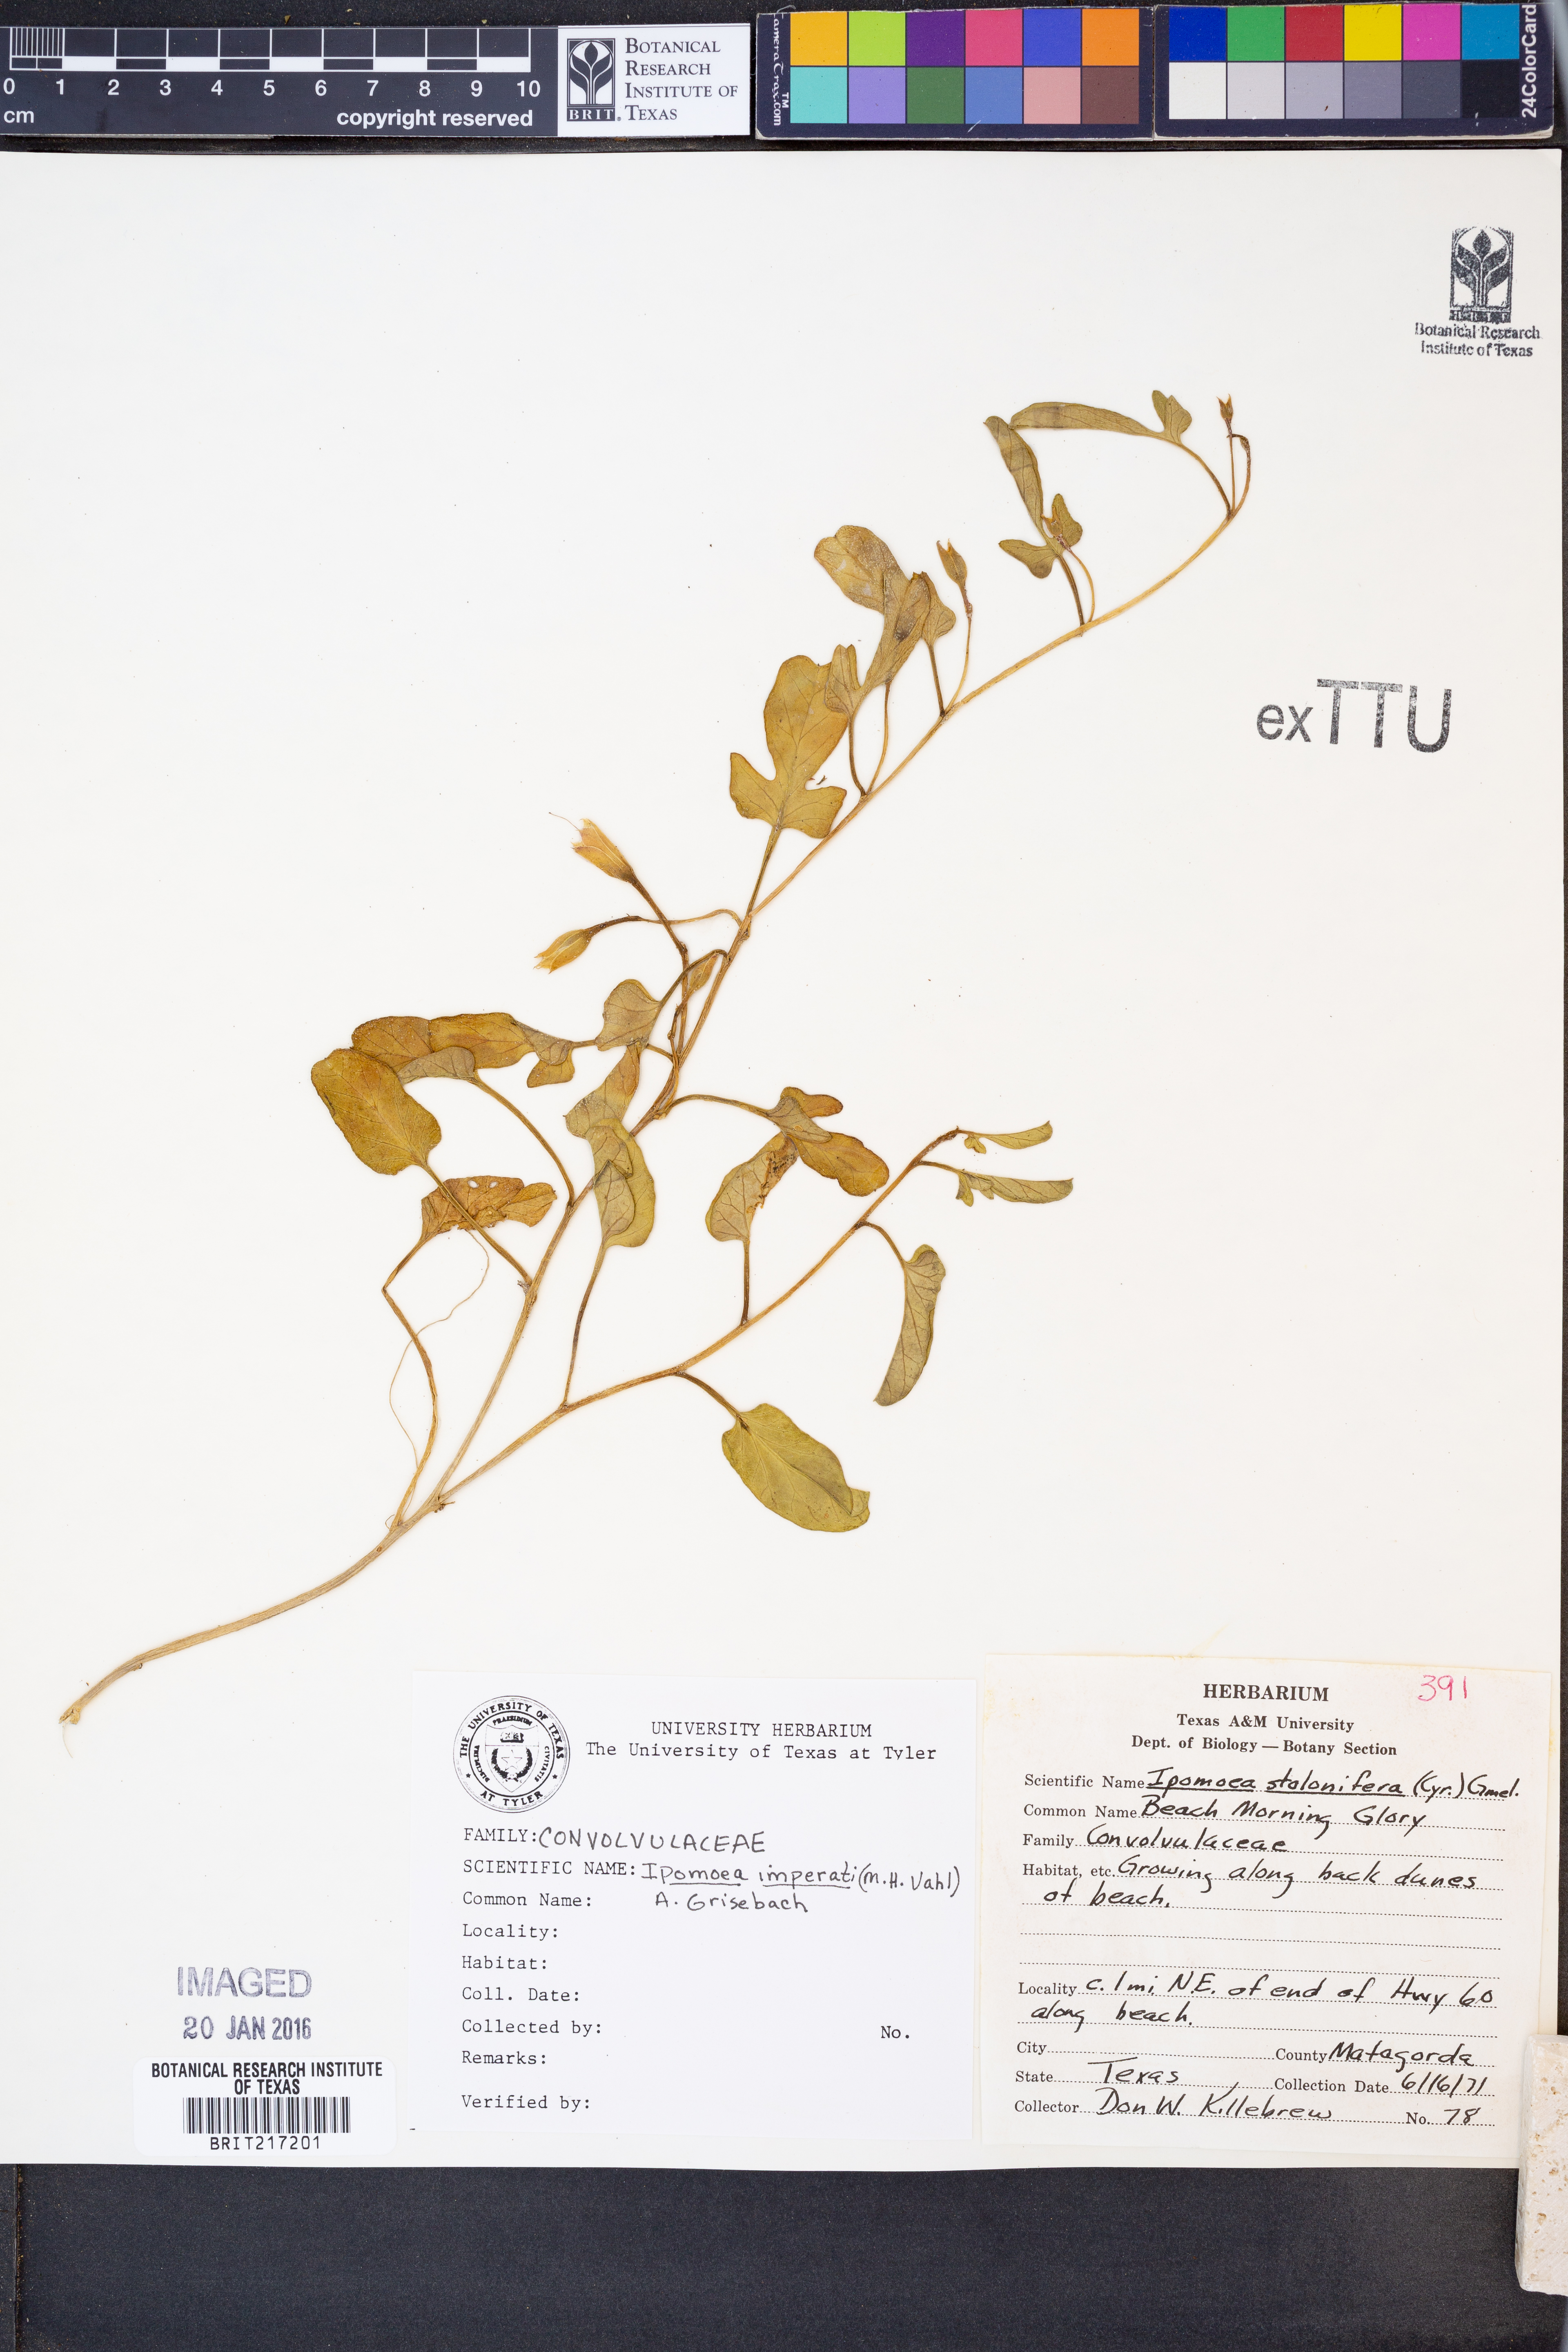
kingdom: Plantae
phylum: Tracheophyta
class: Magnoliopsida
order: Solanales
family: Convolvulaceae
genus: Ipomoea
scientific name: Ipomoea imperati
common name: Fiddle-leaf morning-glory
